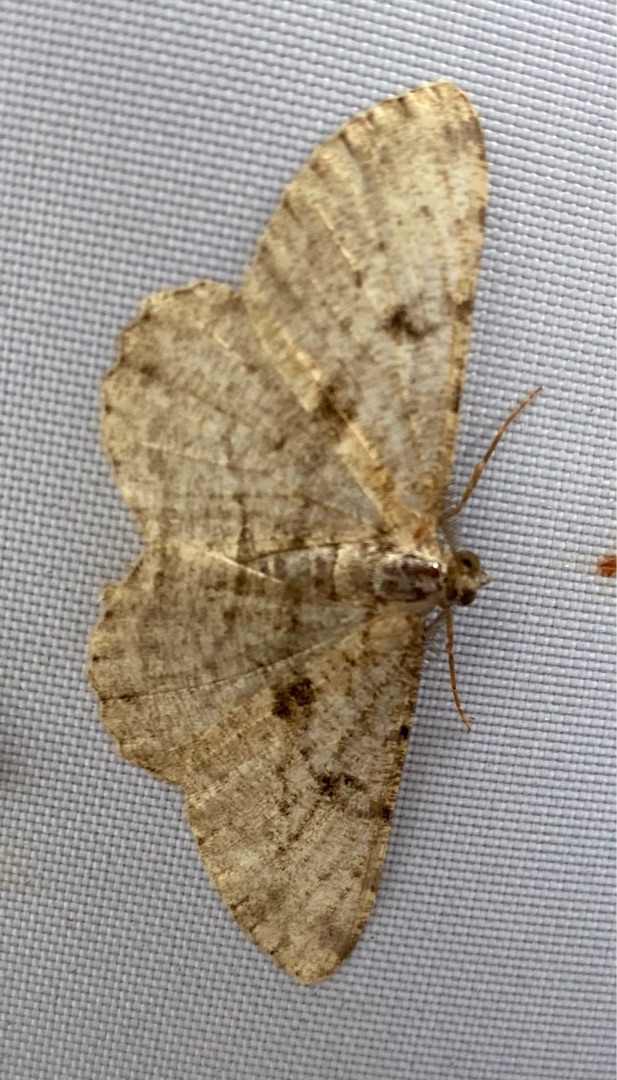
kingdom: Animalia
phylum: Arthropoda
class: Insecta
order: Lepidoptera
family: Geometridae
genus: Peribatodes
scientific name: Peribatodes rhomboidaria
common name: Frugttræ-barkmåler
